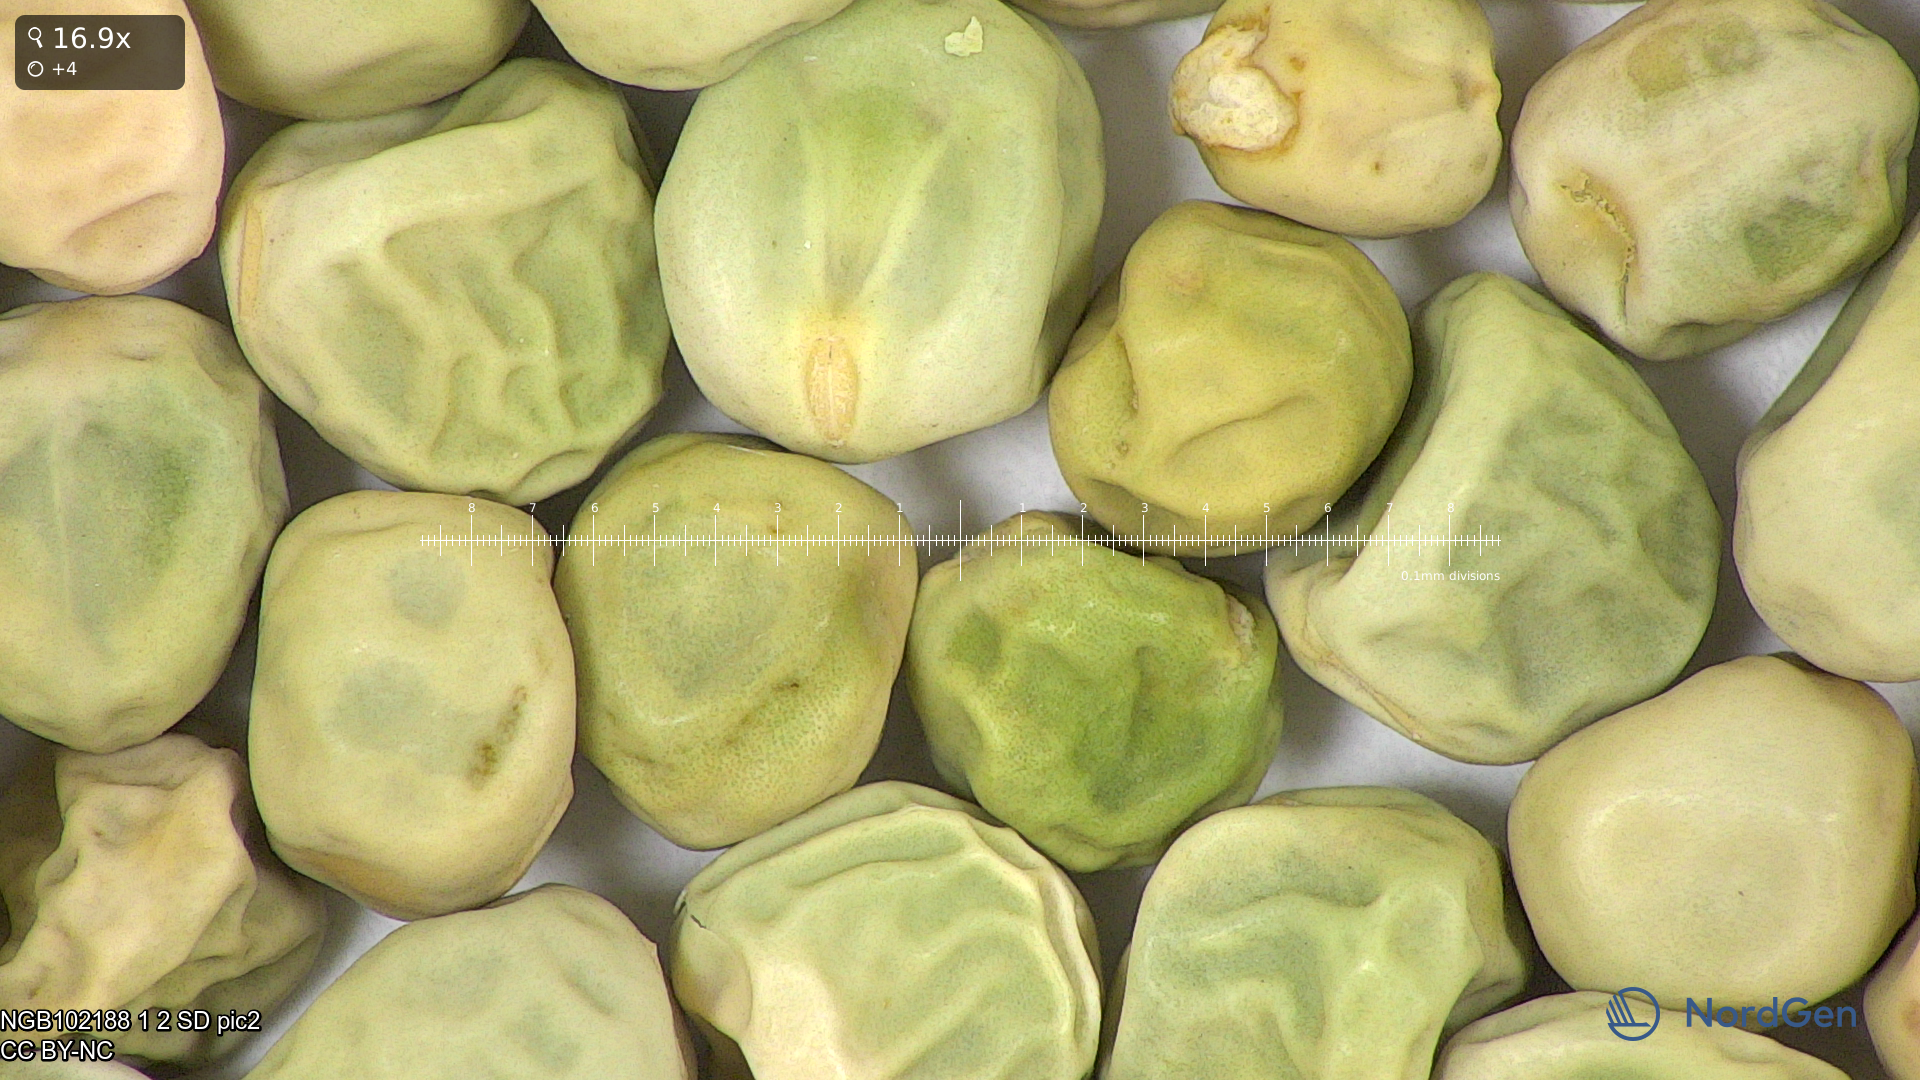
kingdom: Plantae
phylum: Tracheophyta
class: Magnoliopsida
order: Fabales
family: Fabaceae
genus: Lathyrus
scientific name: Lathyrus oleraceus
